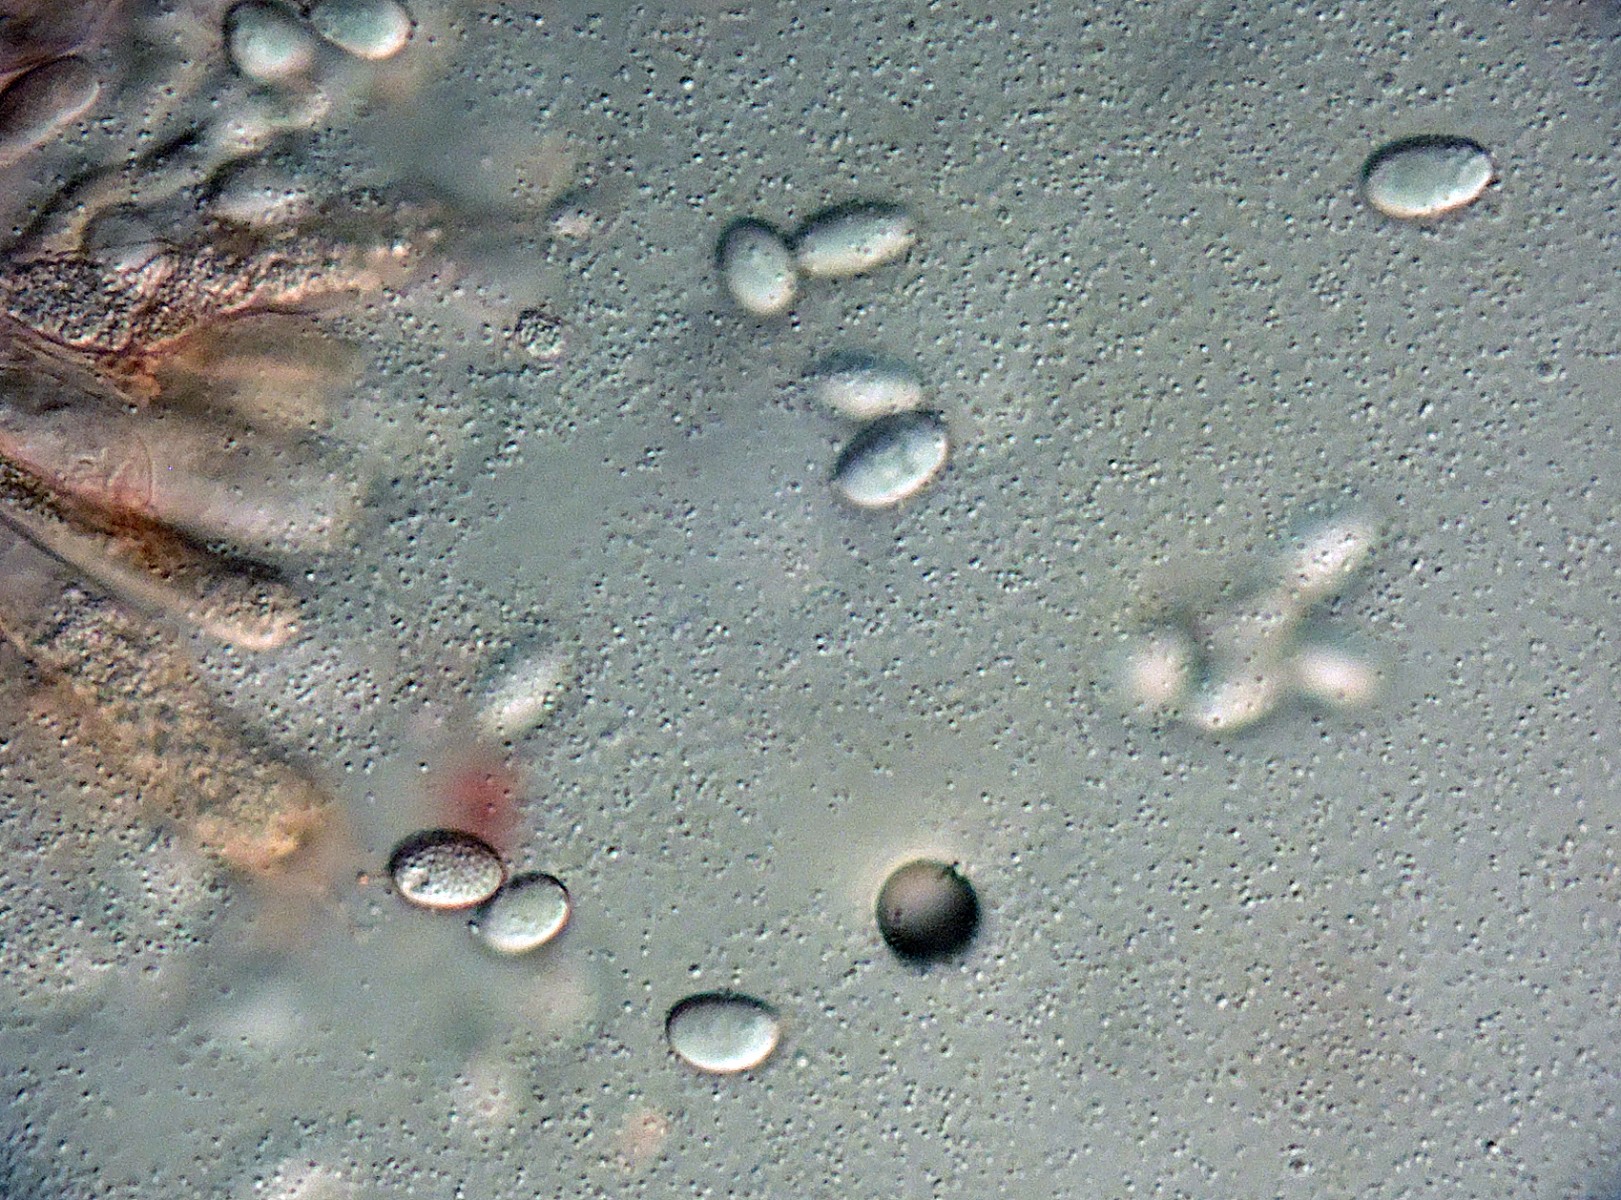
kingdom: Fungi
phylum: Basidiomycota
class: Agaricomycetes
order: Cantharellales
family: Hydnaceae
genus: Hydnum
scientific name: Hydnum ellipsosporum
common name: tandet pigsvamp
